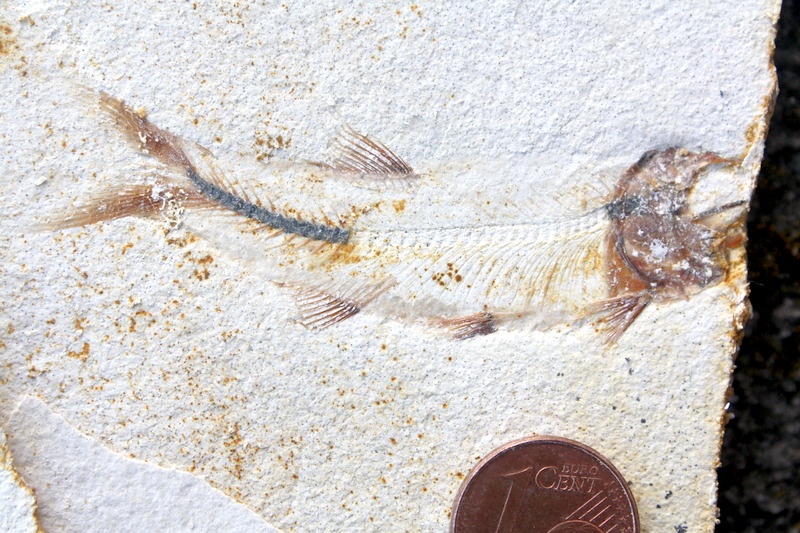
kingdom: Animalia
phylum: Chordata
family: Ascalaboidae
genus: Ebertichthys
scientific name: Ebertichthys ettlingensis
